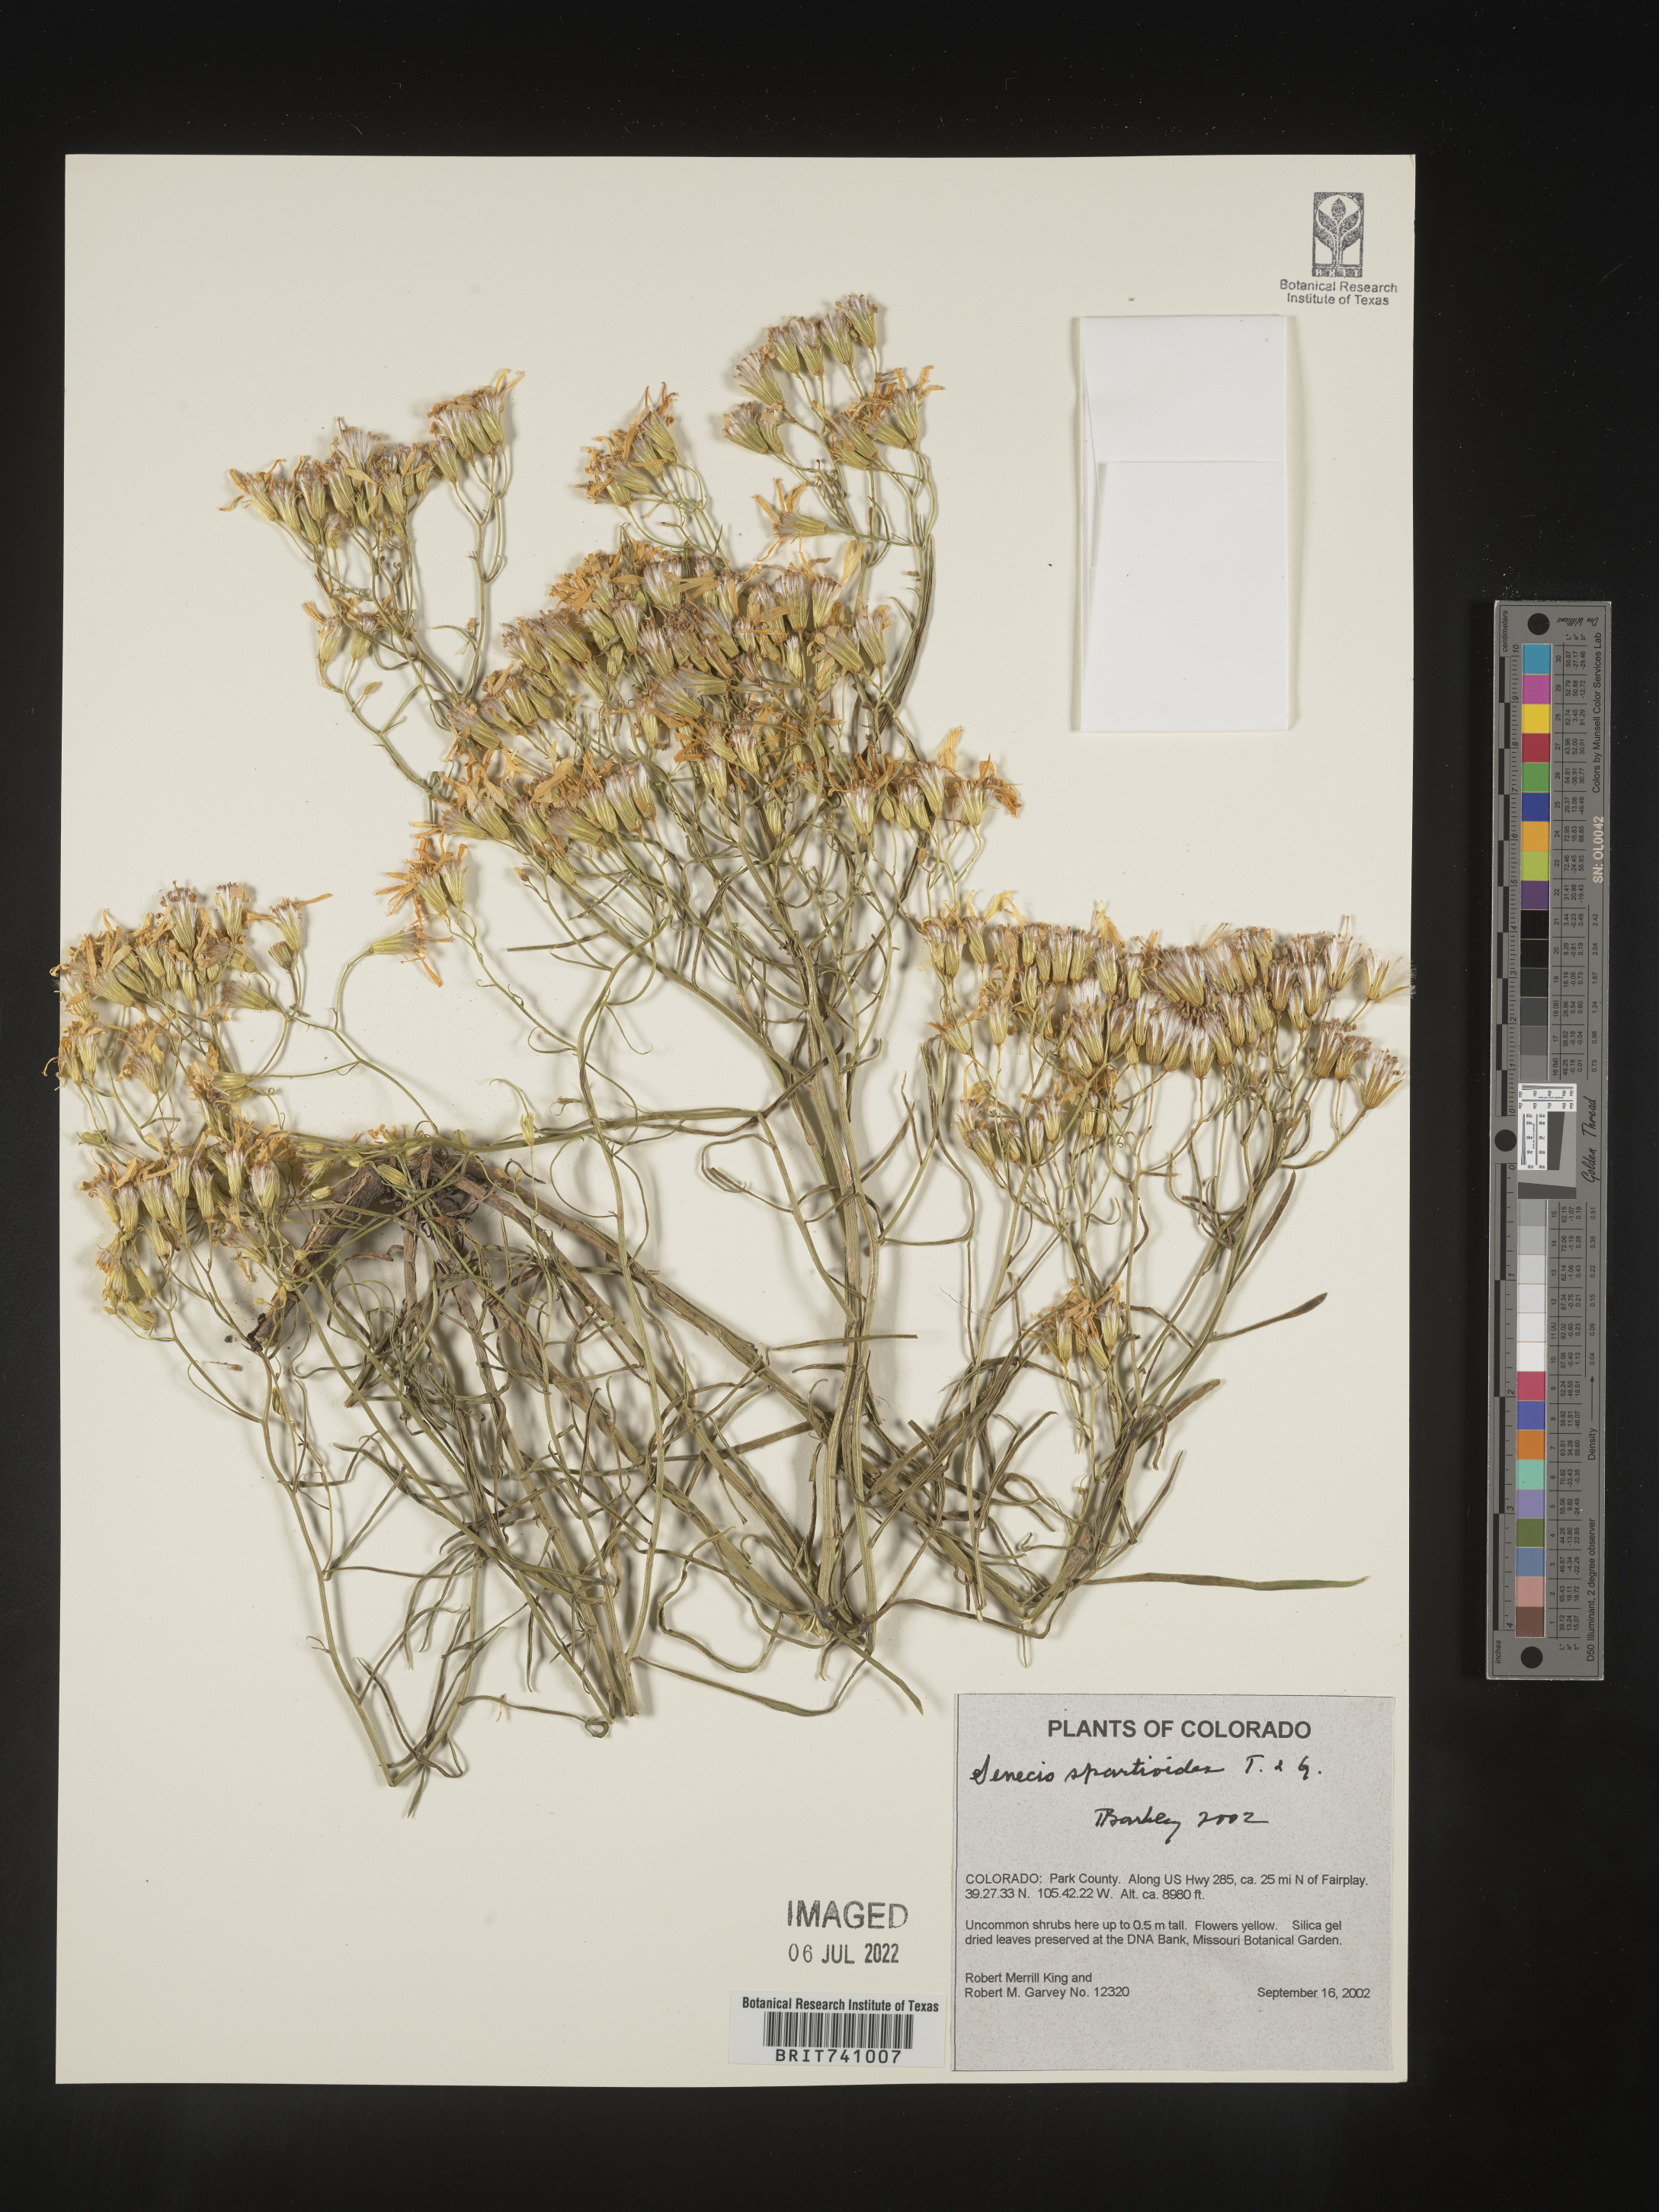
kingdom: Plantae
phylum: Tracheophyta
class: Magnoliopsida
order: Asterales
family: Asteraceae
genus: Senecio
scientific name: Senecio spartioides
